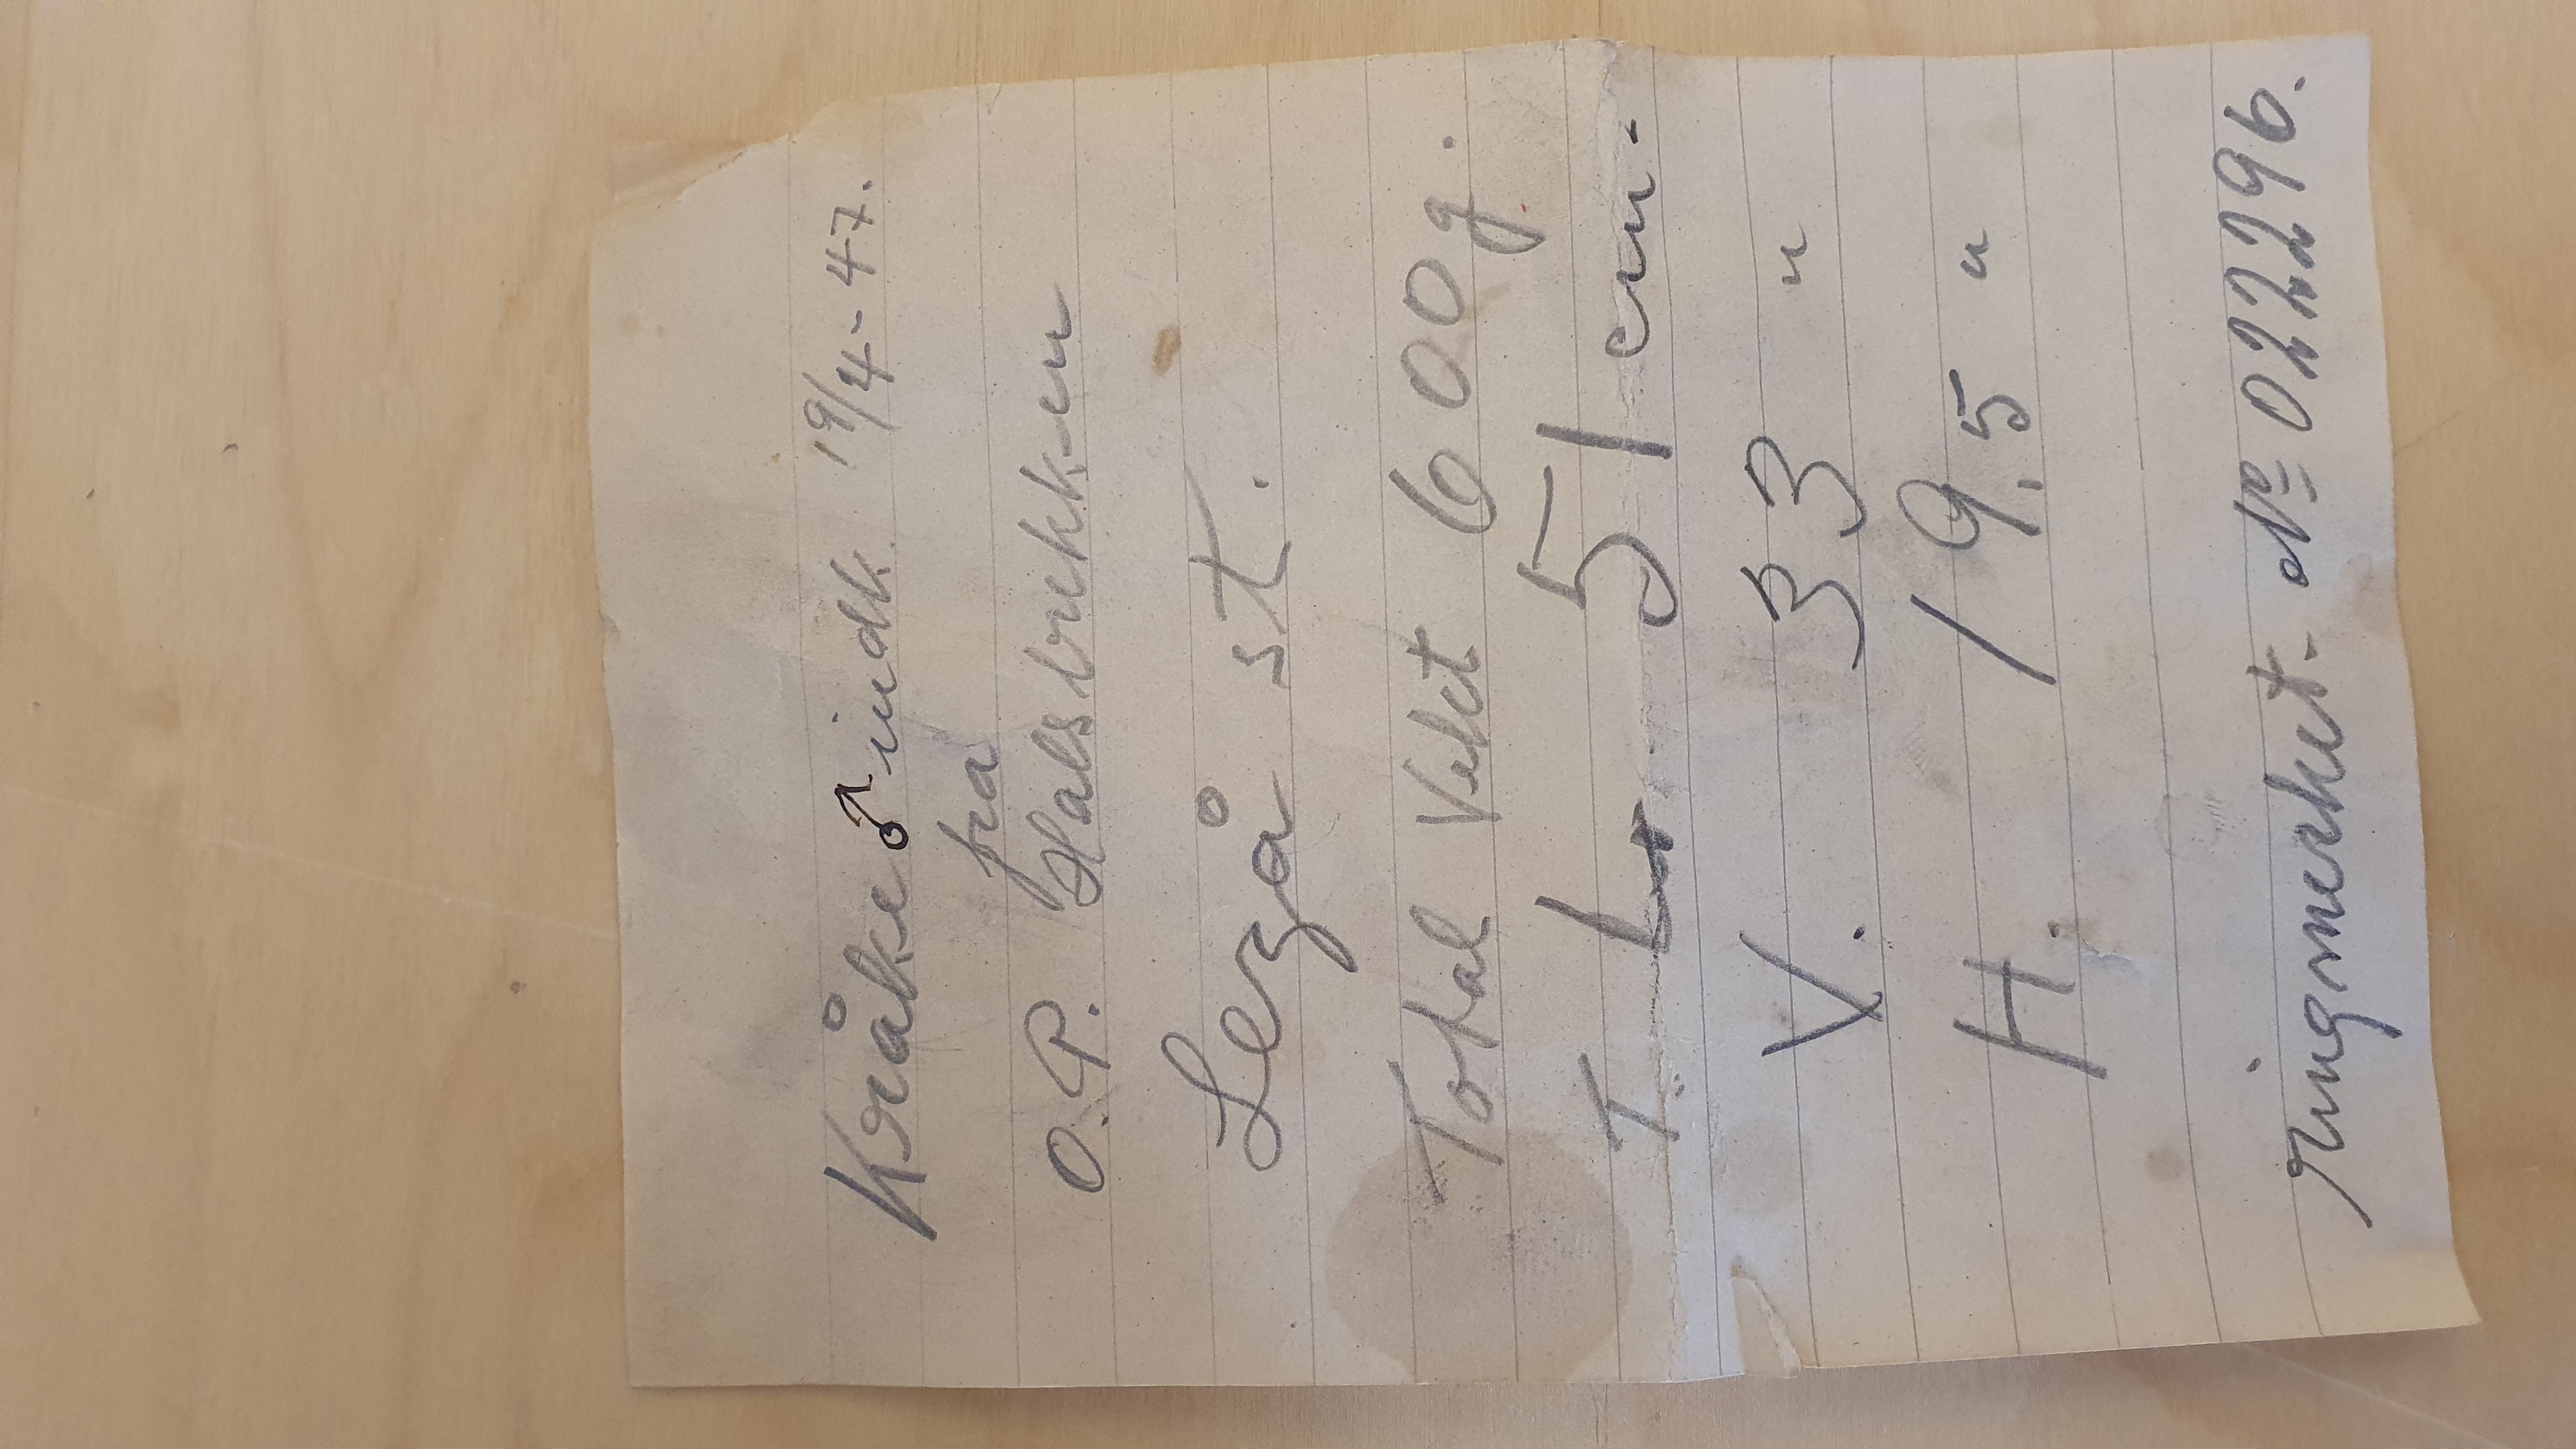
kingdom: Animalia
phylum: Chordata
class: Aves
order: Passeriformes
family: Corvidae
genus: Corvus
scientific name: Corvus cornix
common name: Hooded crow
